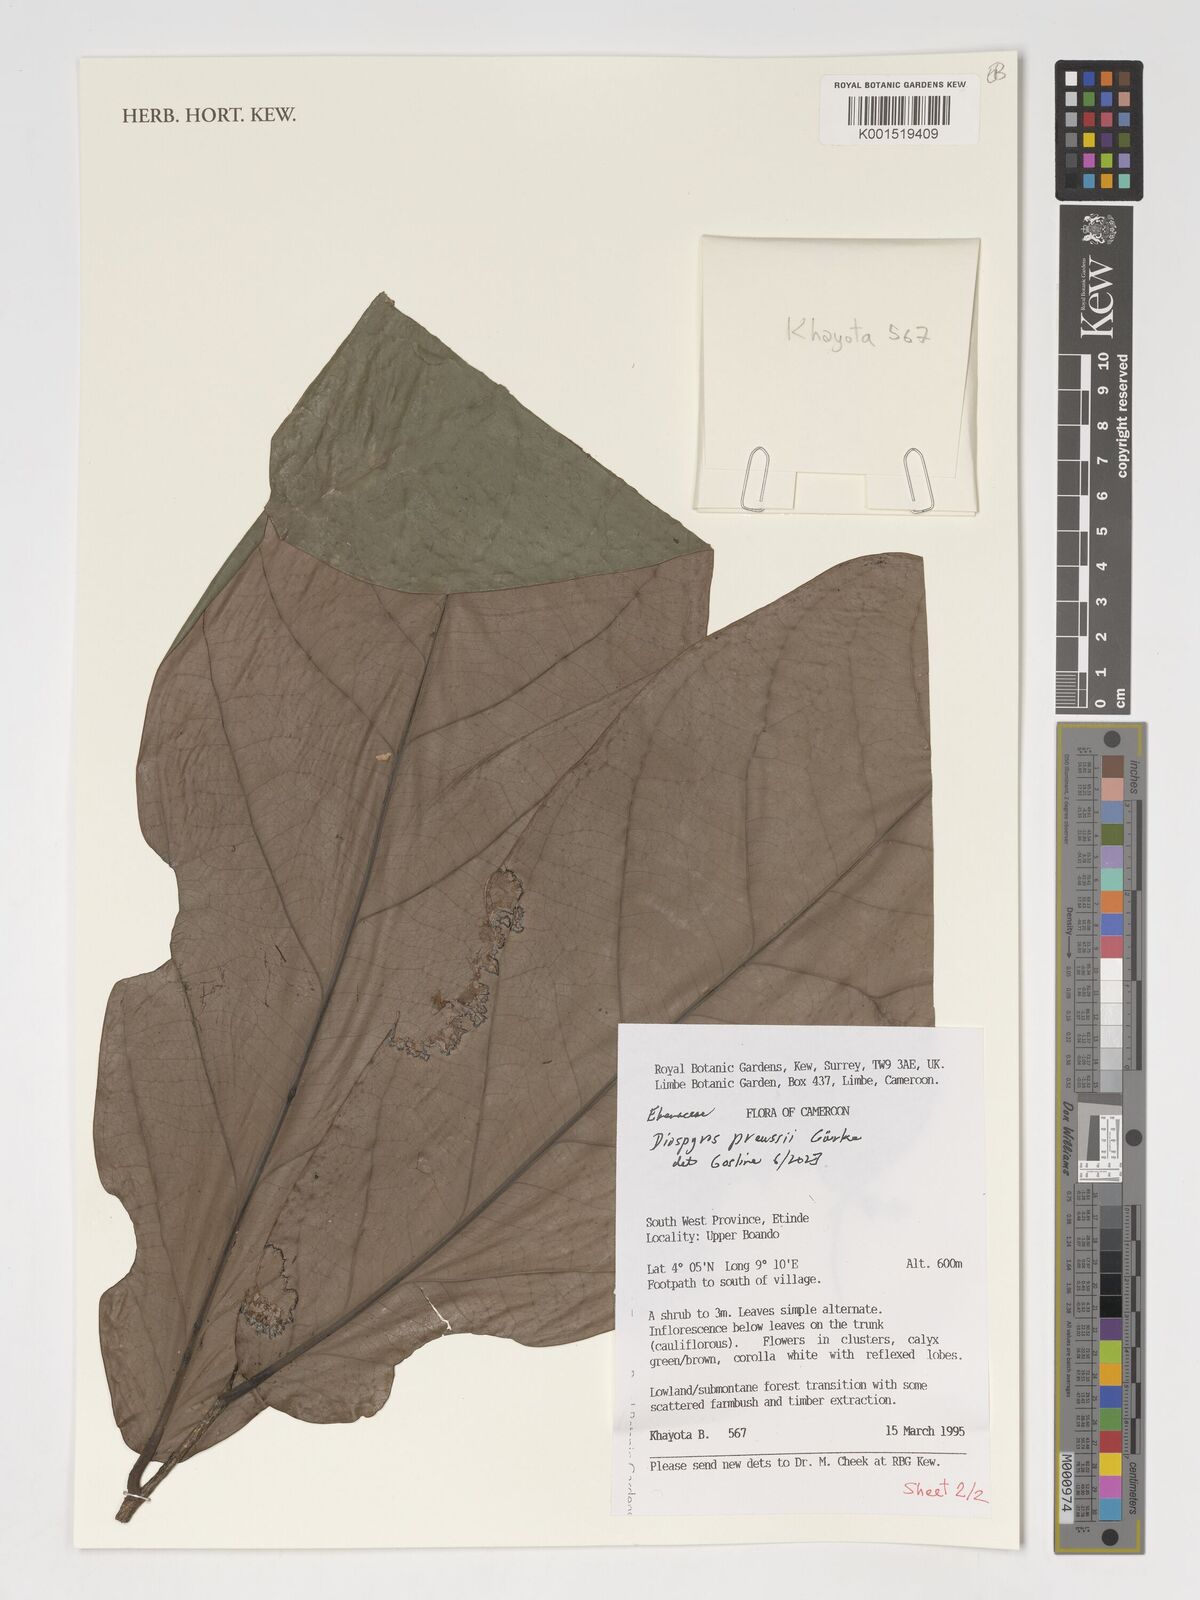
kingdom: Plantae
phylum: Tracheophyta
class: Magnoliopsida
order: Ericales
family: Ebenaceae
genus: Diospyros
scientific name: Diospyros preussii
